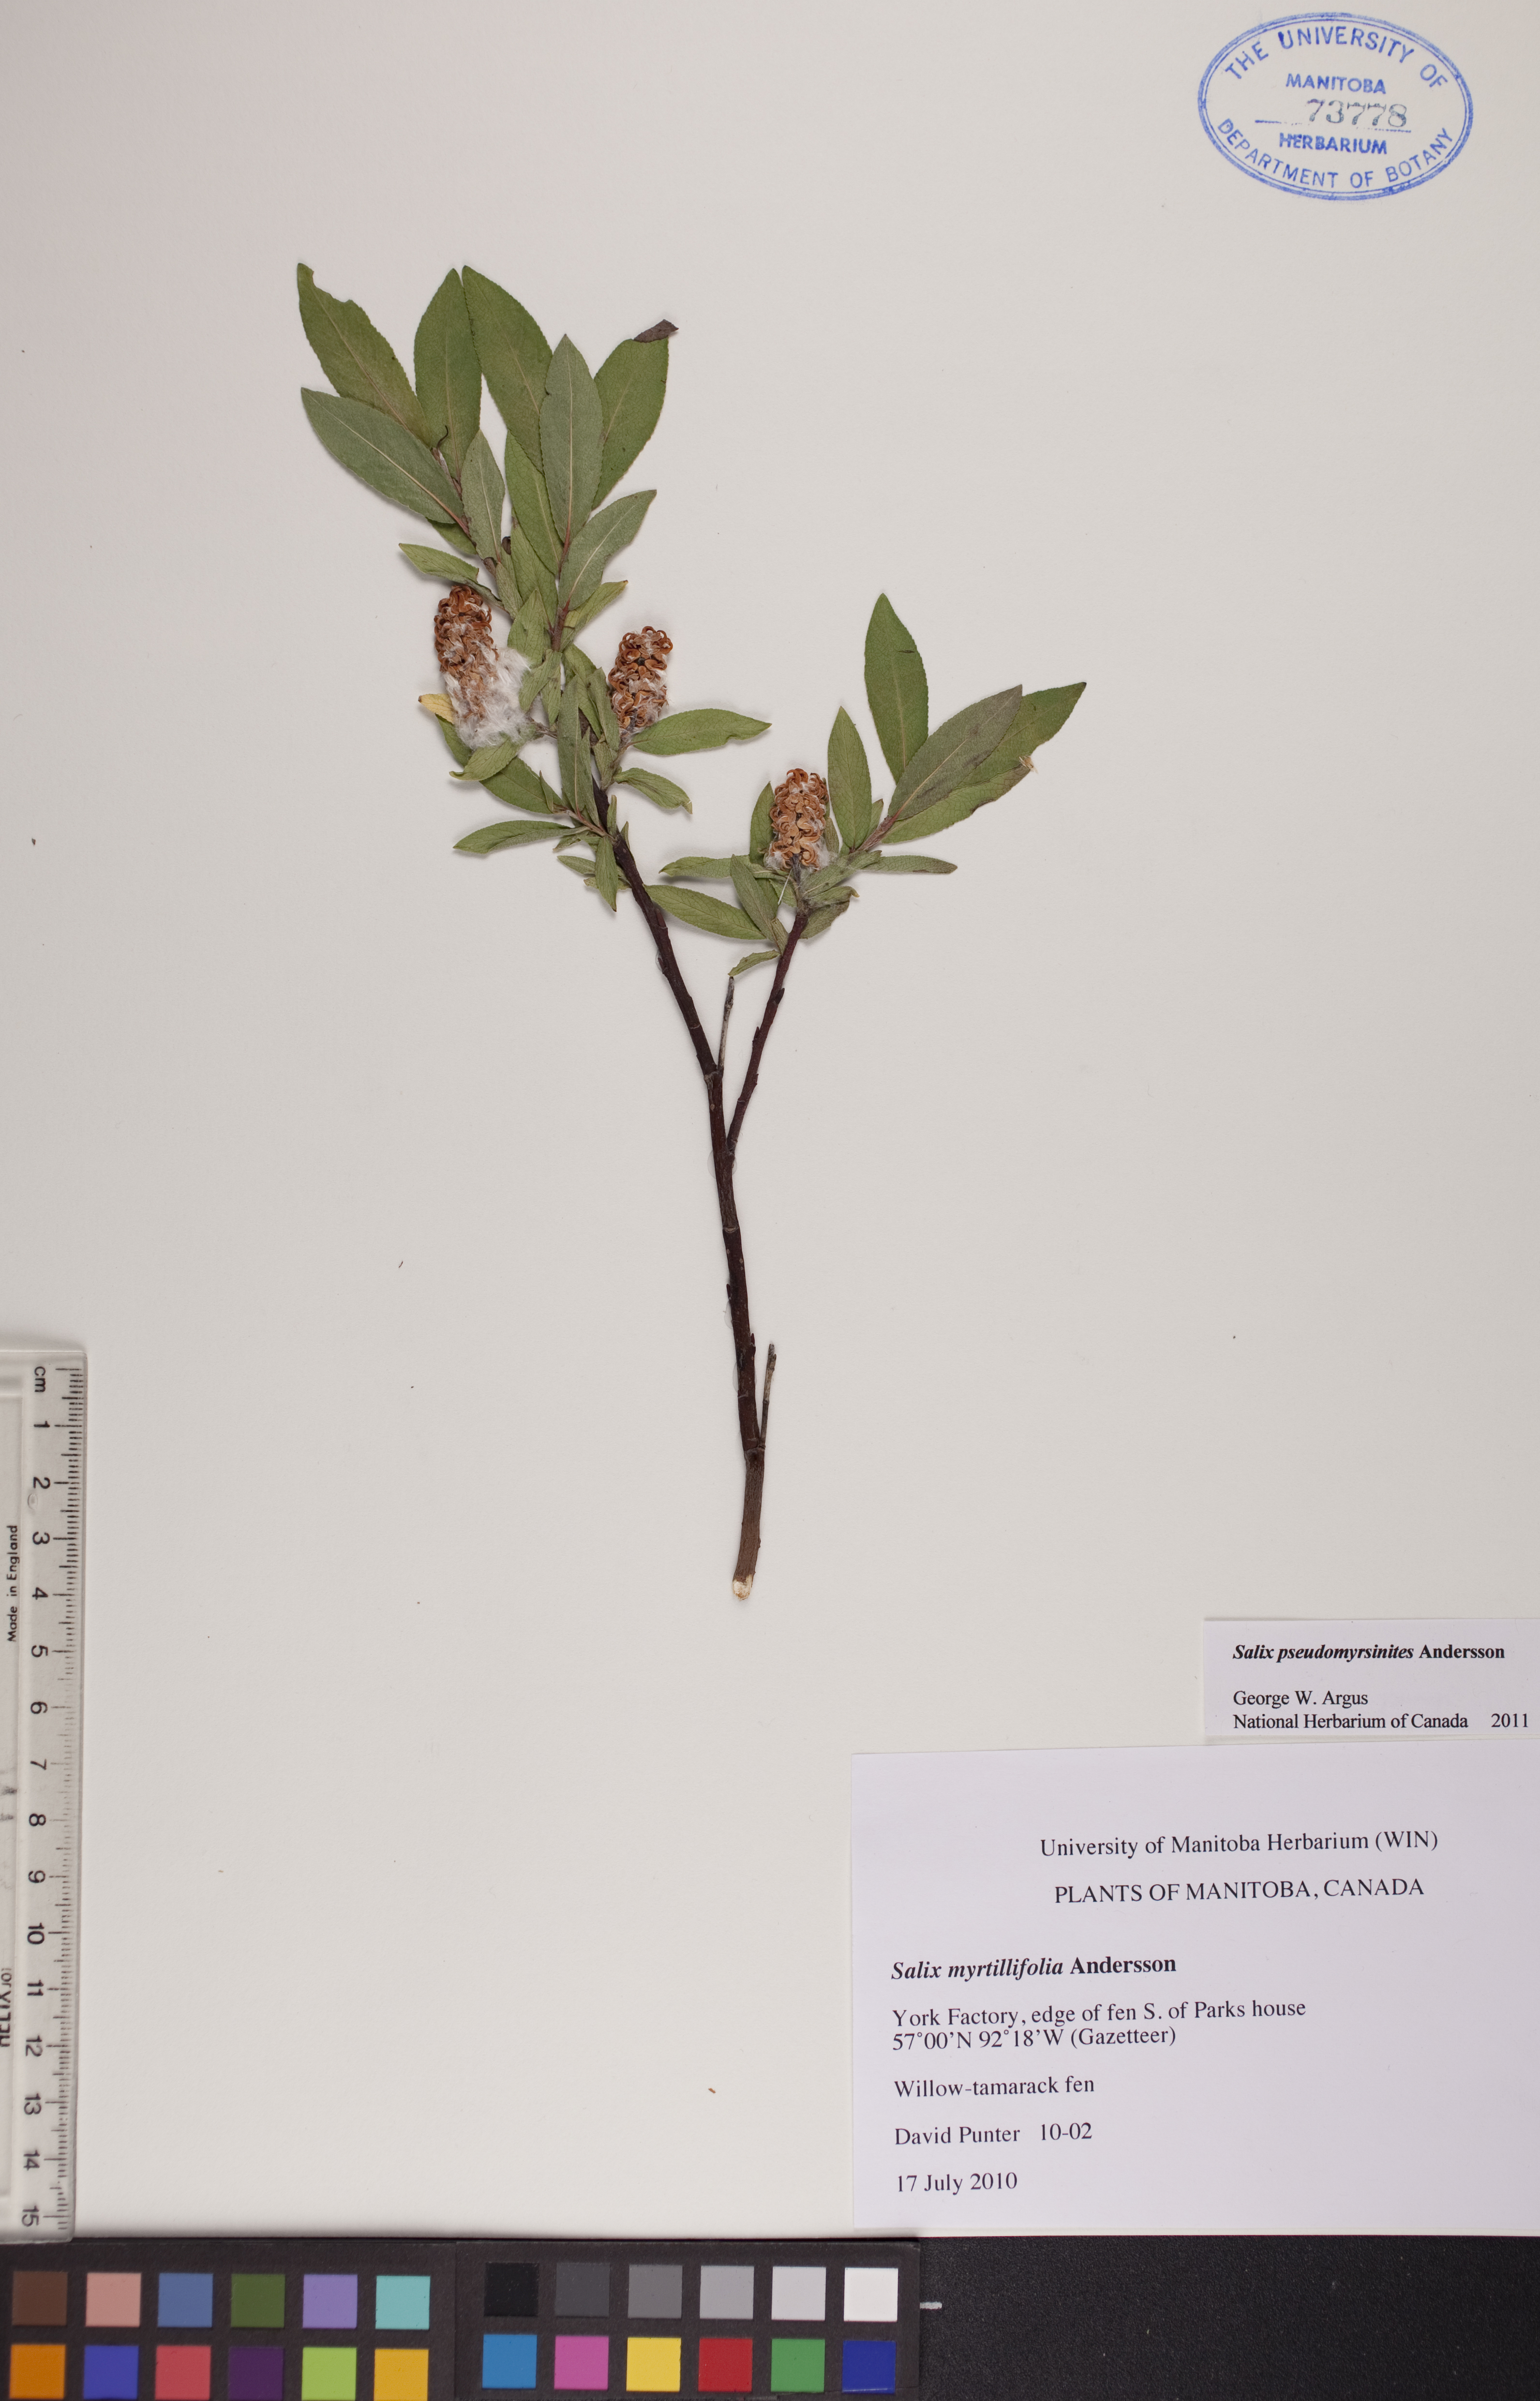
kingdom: Plantae
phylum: Tracheophyta
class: Magnoliopsida
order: Malpighiales
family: Salicaceae
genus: Salix
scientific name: Salix pseudomyrsinites
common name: Tall blueberry willow
